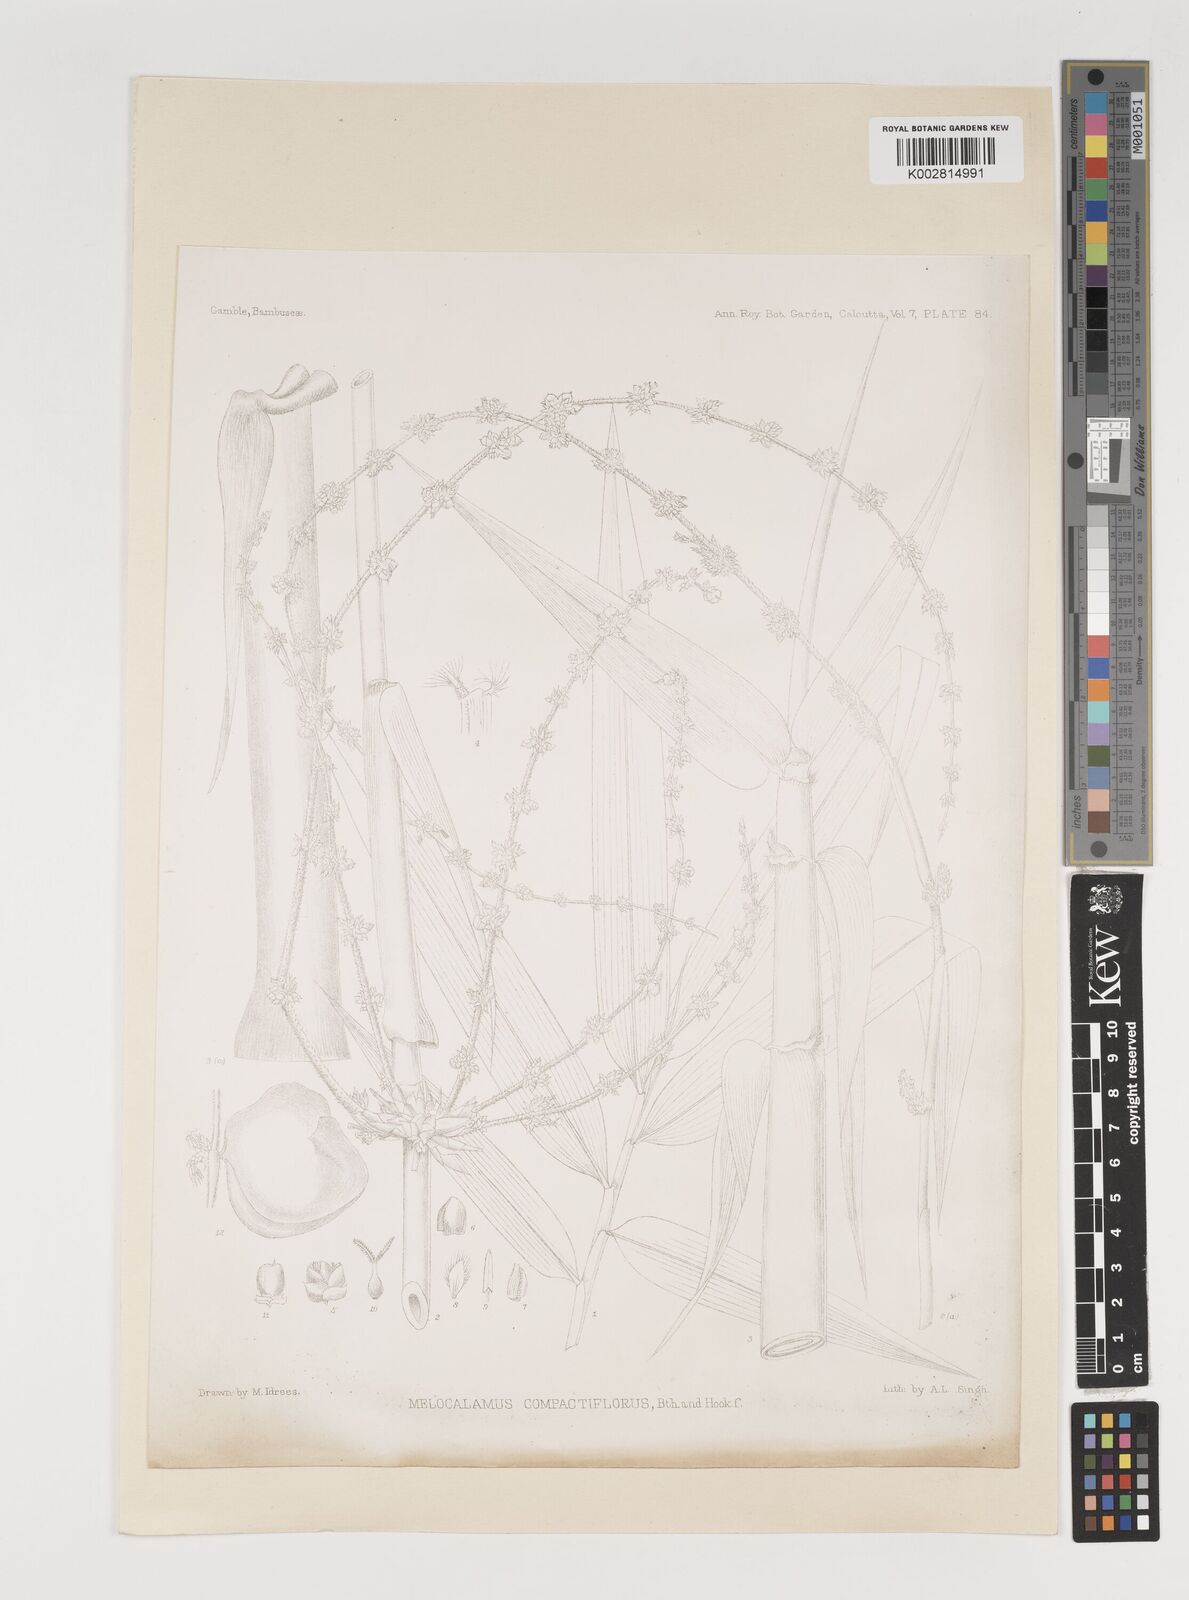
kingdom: Plantae
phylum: Tracheophyta
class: Liliopsida
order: Poales
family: Poaceae
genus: Melocalamus
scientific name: Melocalamus compactiflorus
